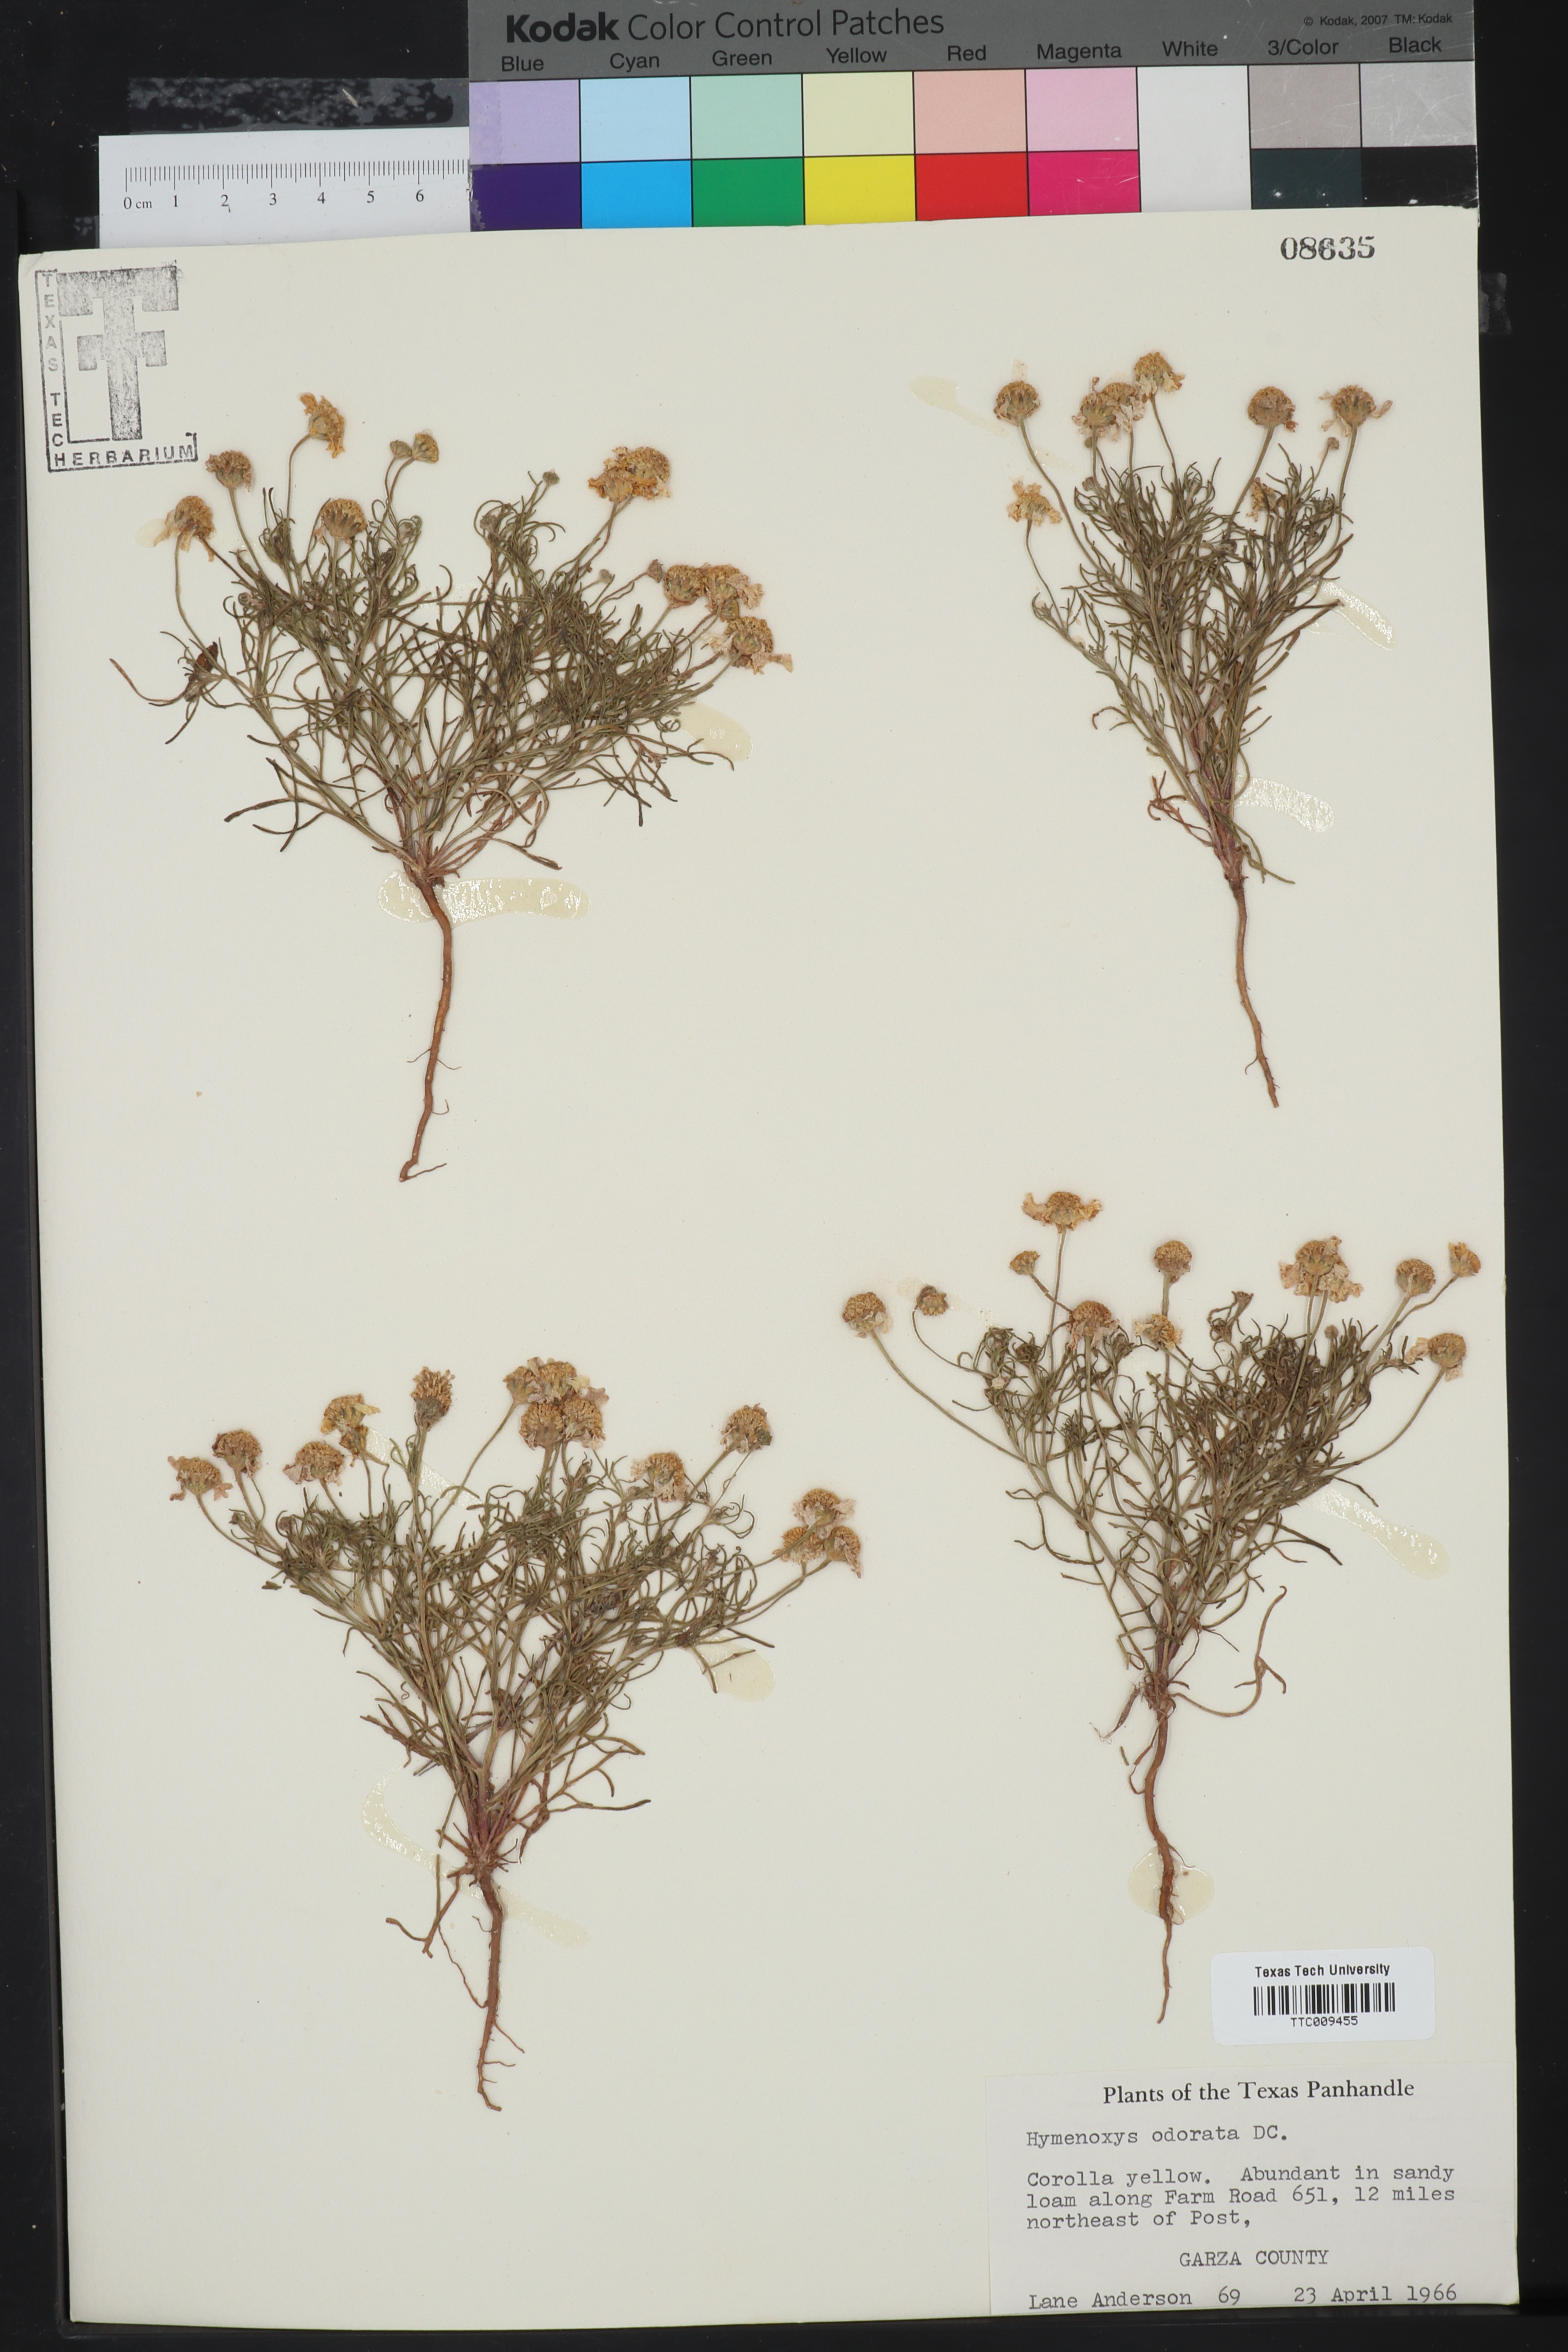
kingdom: Plantae
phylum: Tracheophyta
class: Magnoliopsida
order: Asterales
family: Asteraceae
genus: Hymenoxys
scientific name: Hymenoxys odorata
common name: Bitter rubberweed
